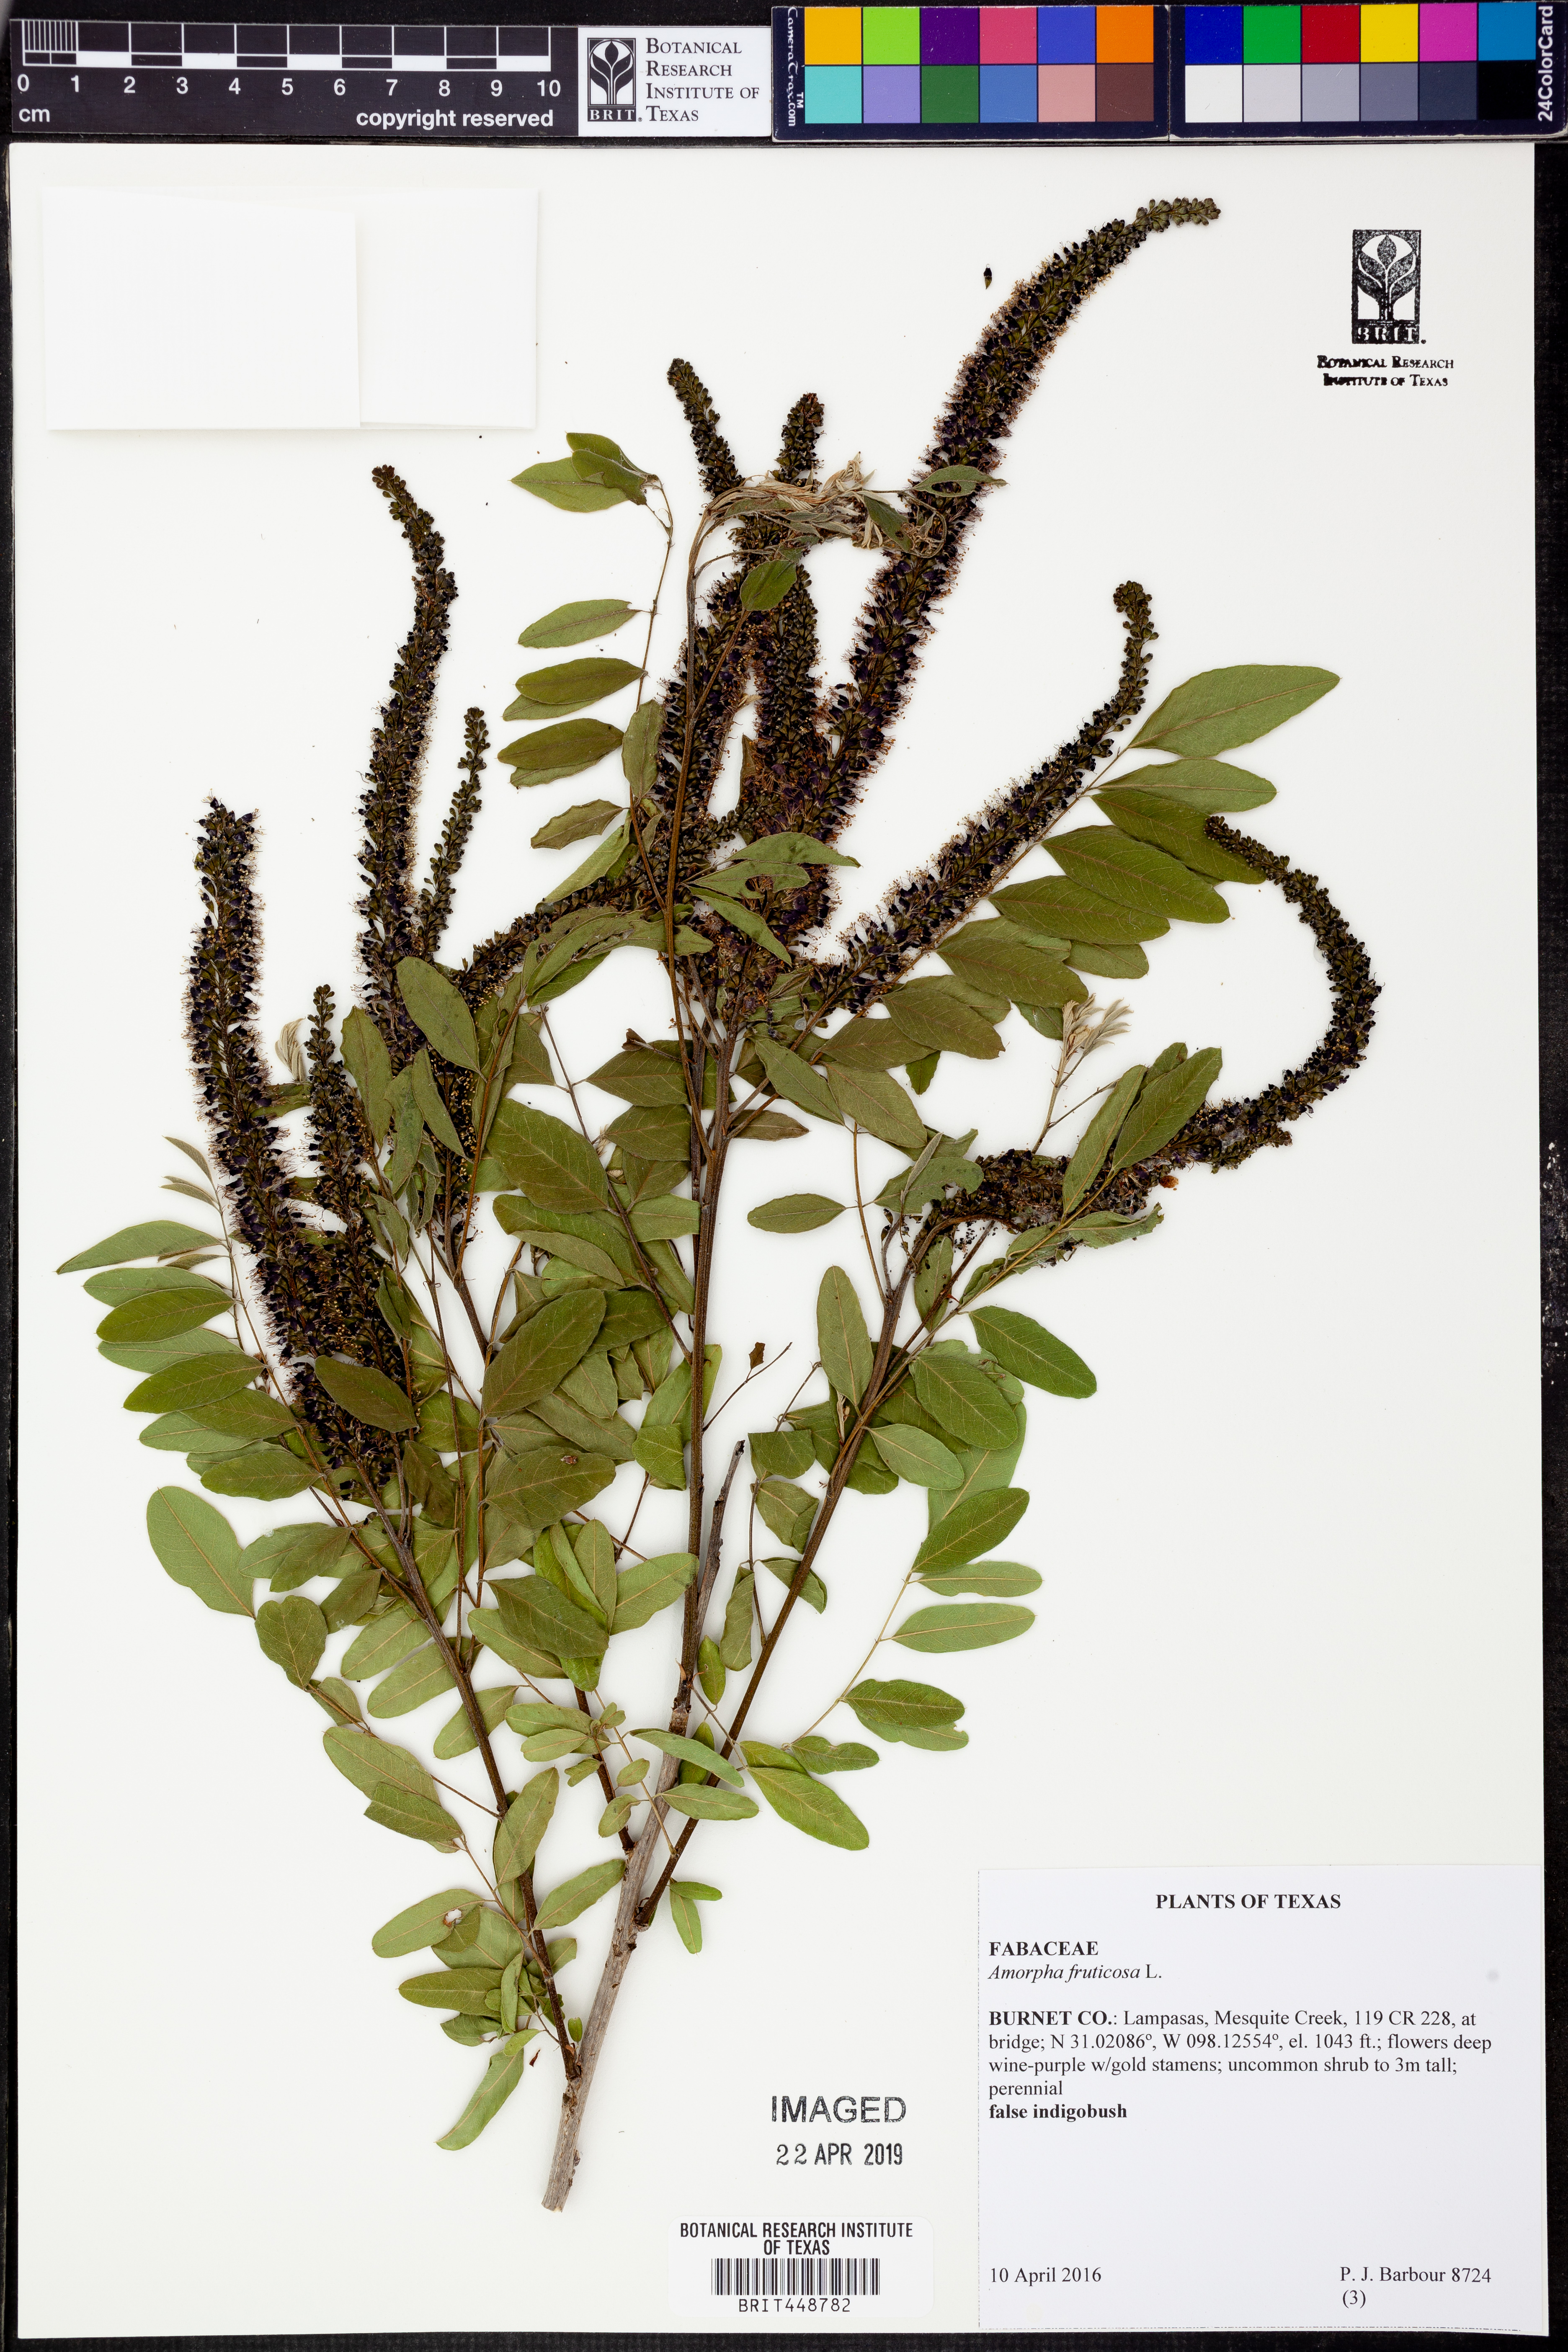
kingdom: Plantae
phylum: Tracheophyta
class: Magnoliopsida
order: Fabales
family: Fabaceae
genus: Amorpha
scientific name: Amorpha fruticosa
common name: False indigo
